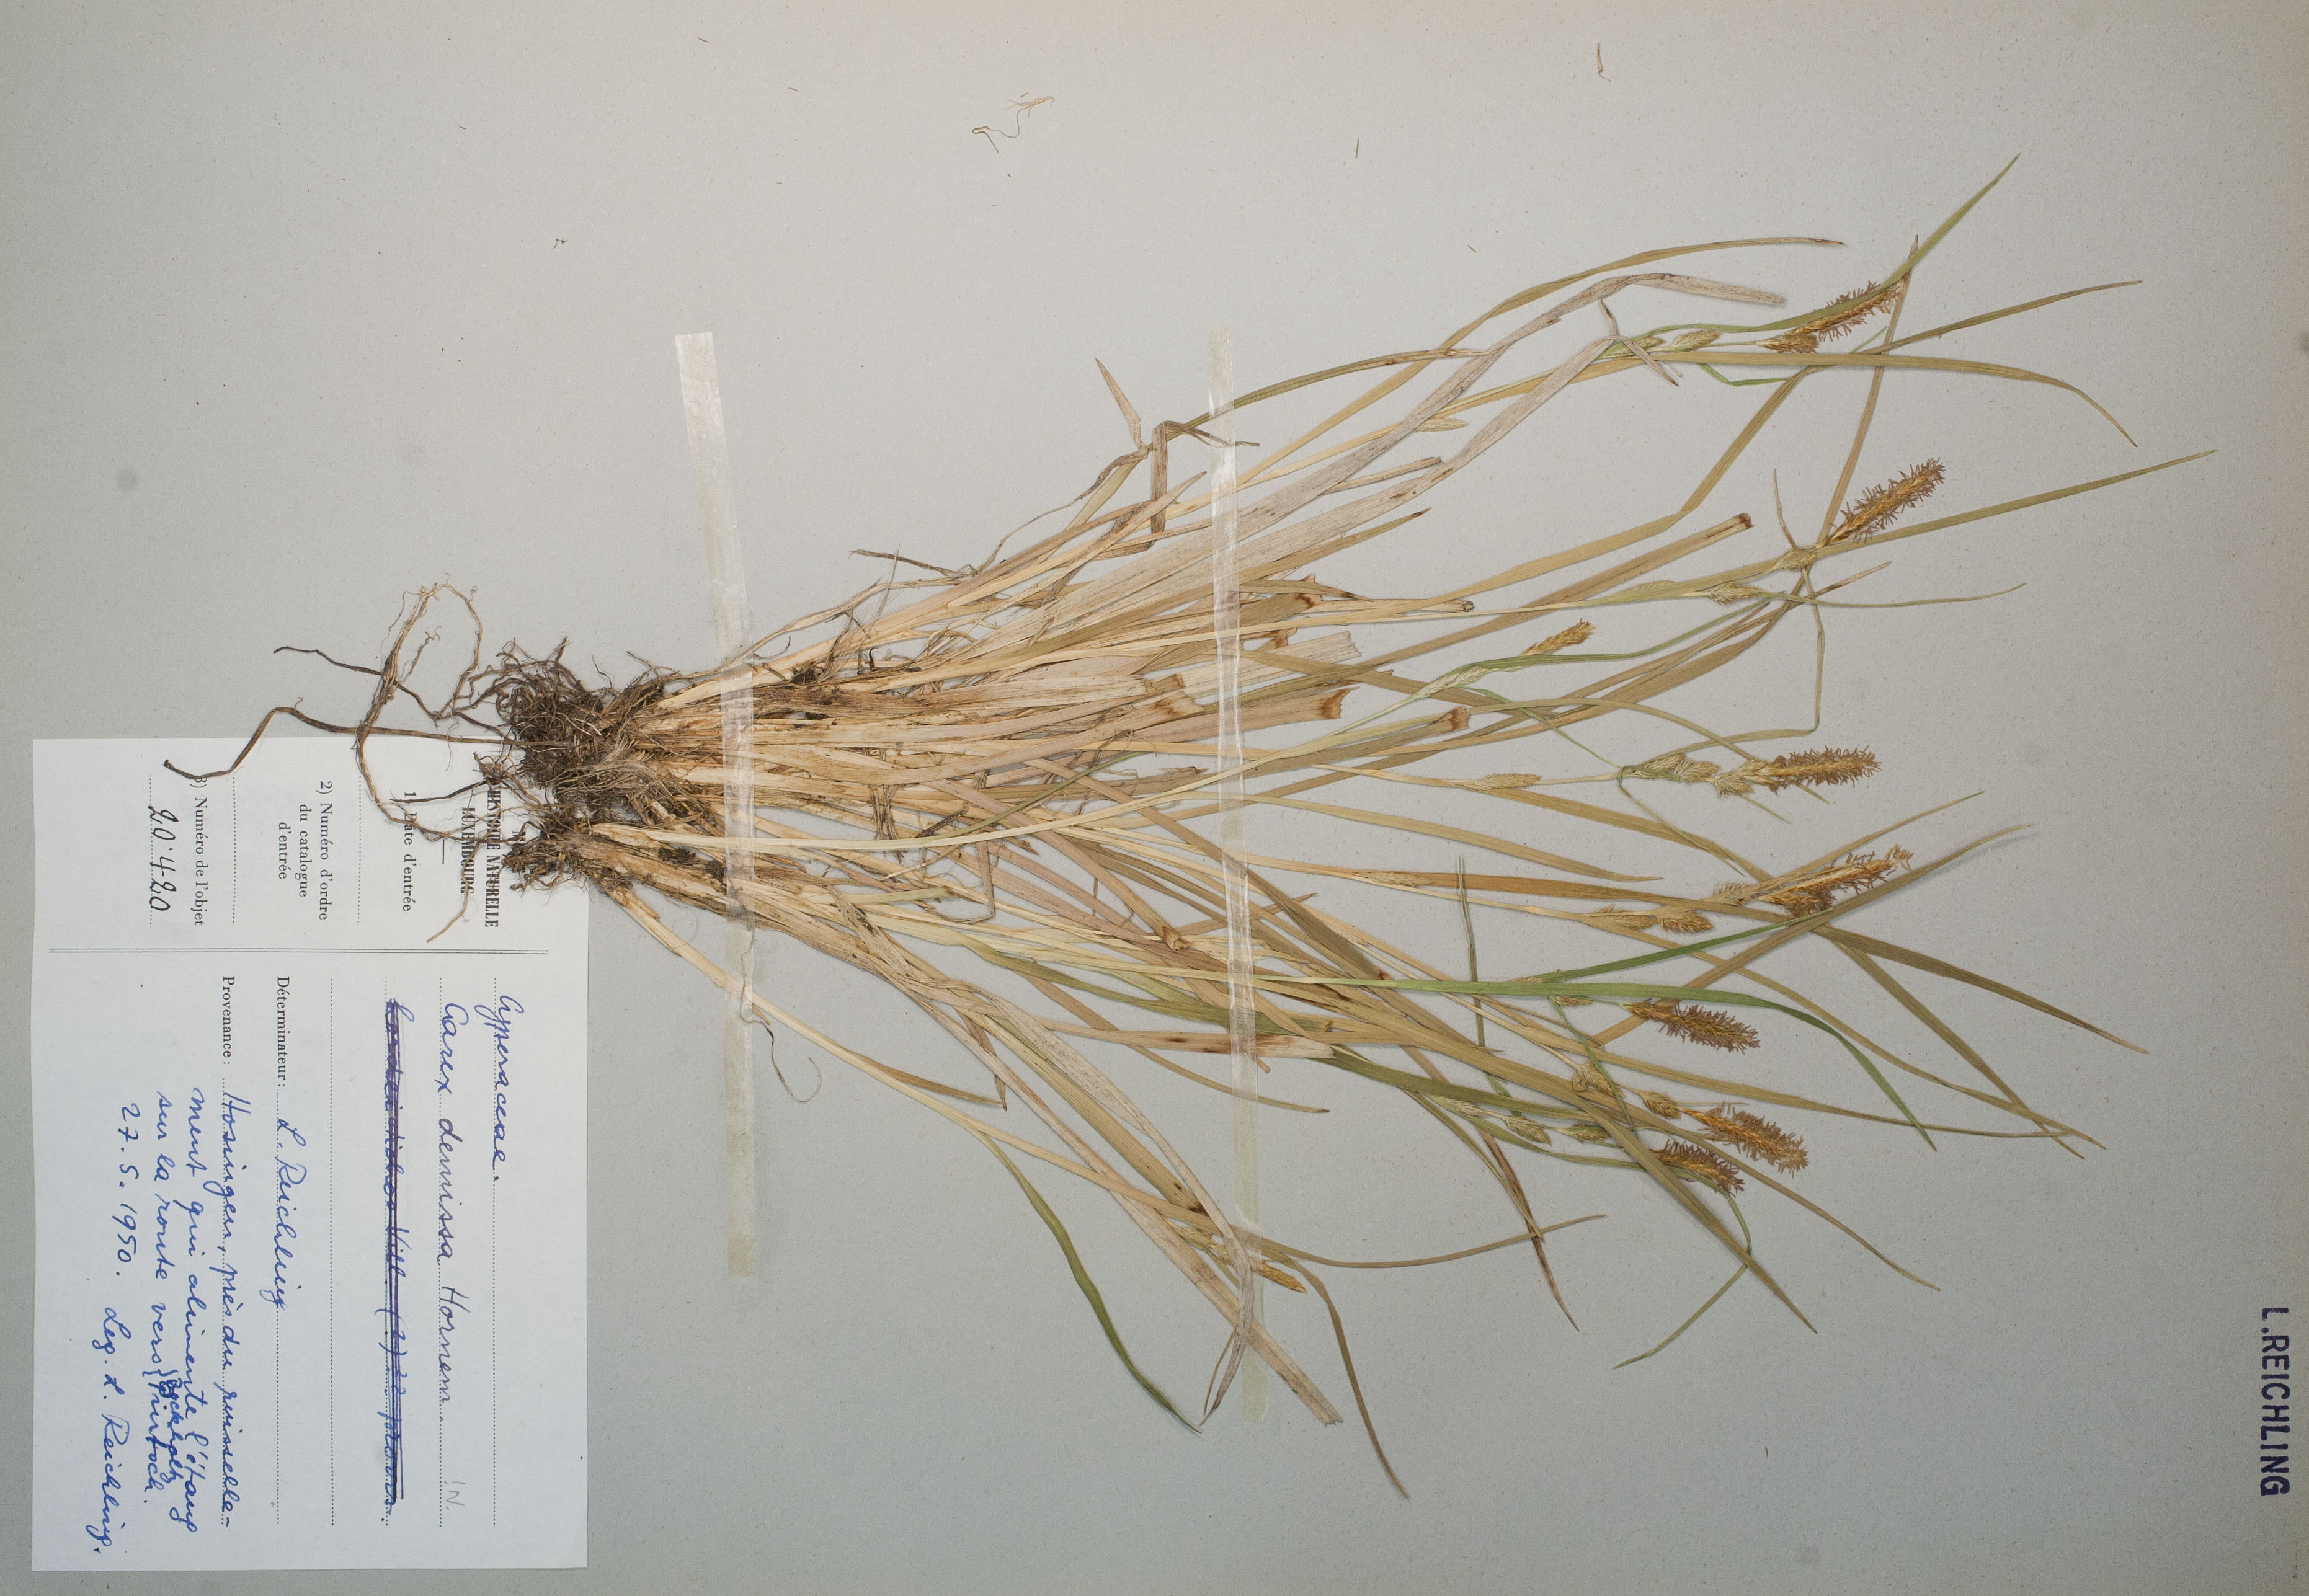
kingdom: Plantae
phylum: Tracheophyta
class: Liliopsida
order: Poales
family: Cyperaceae
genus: Carex
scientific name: Carex demissa
